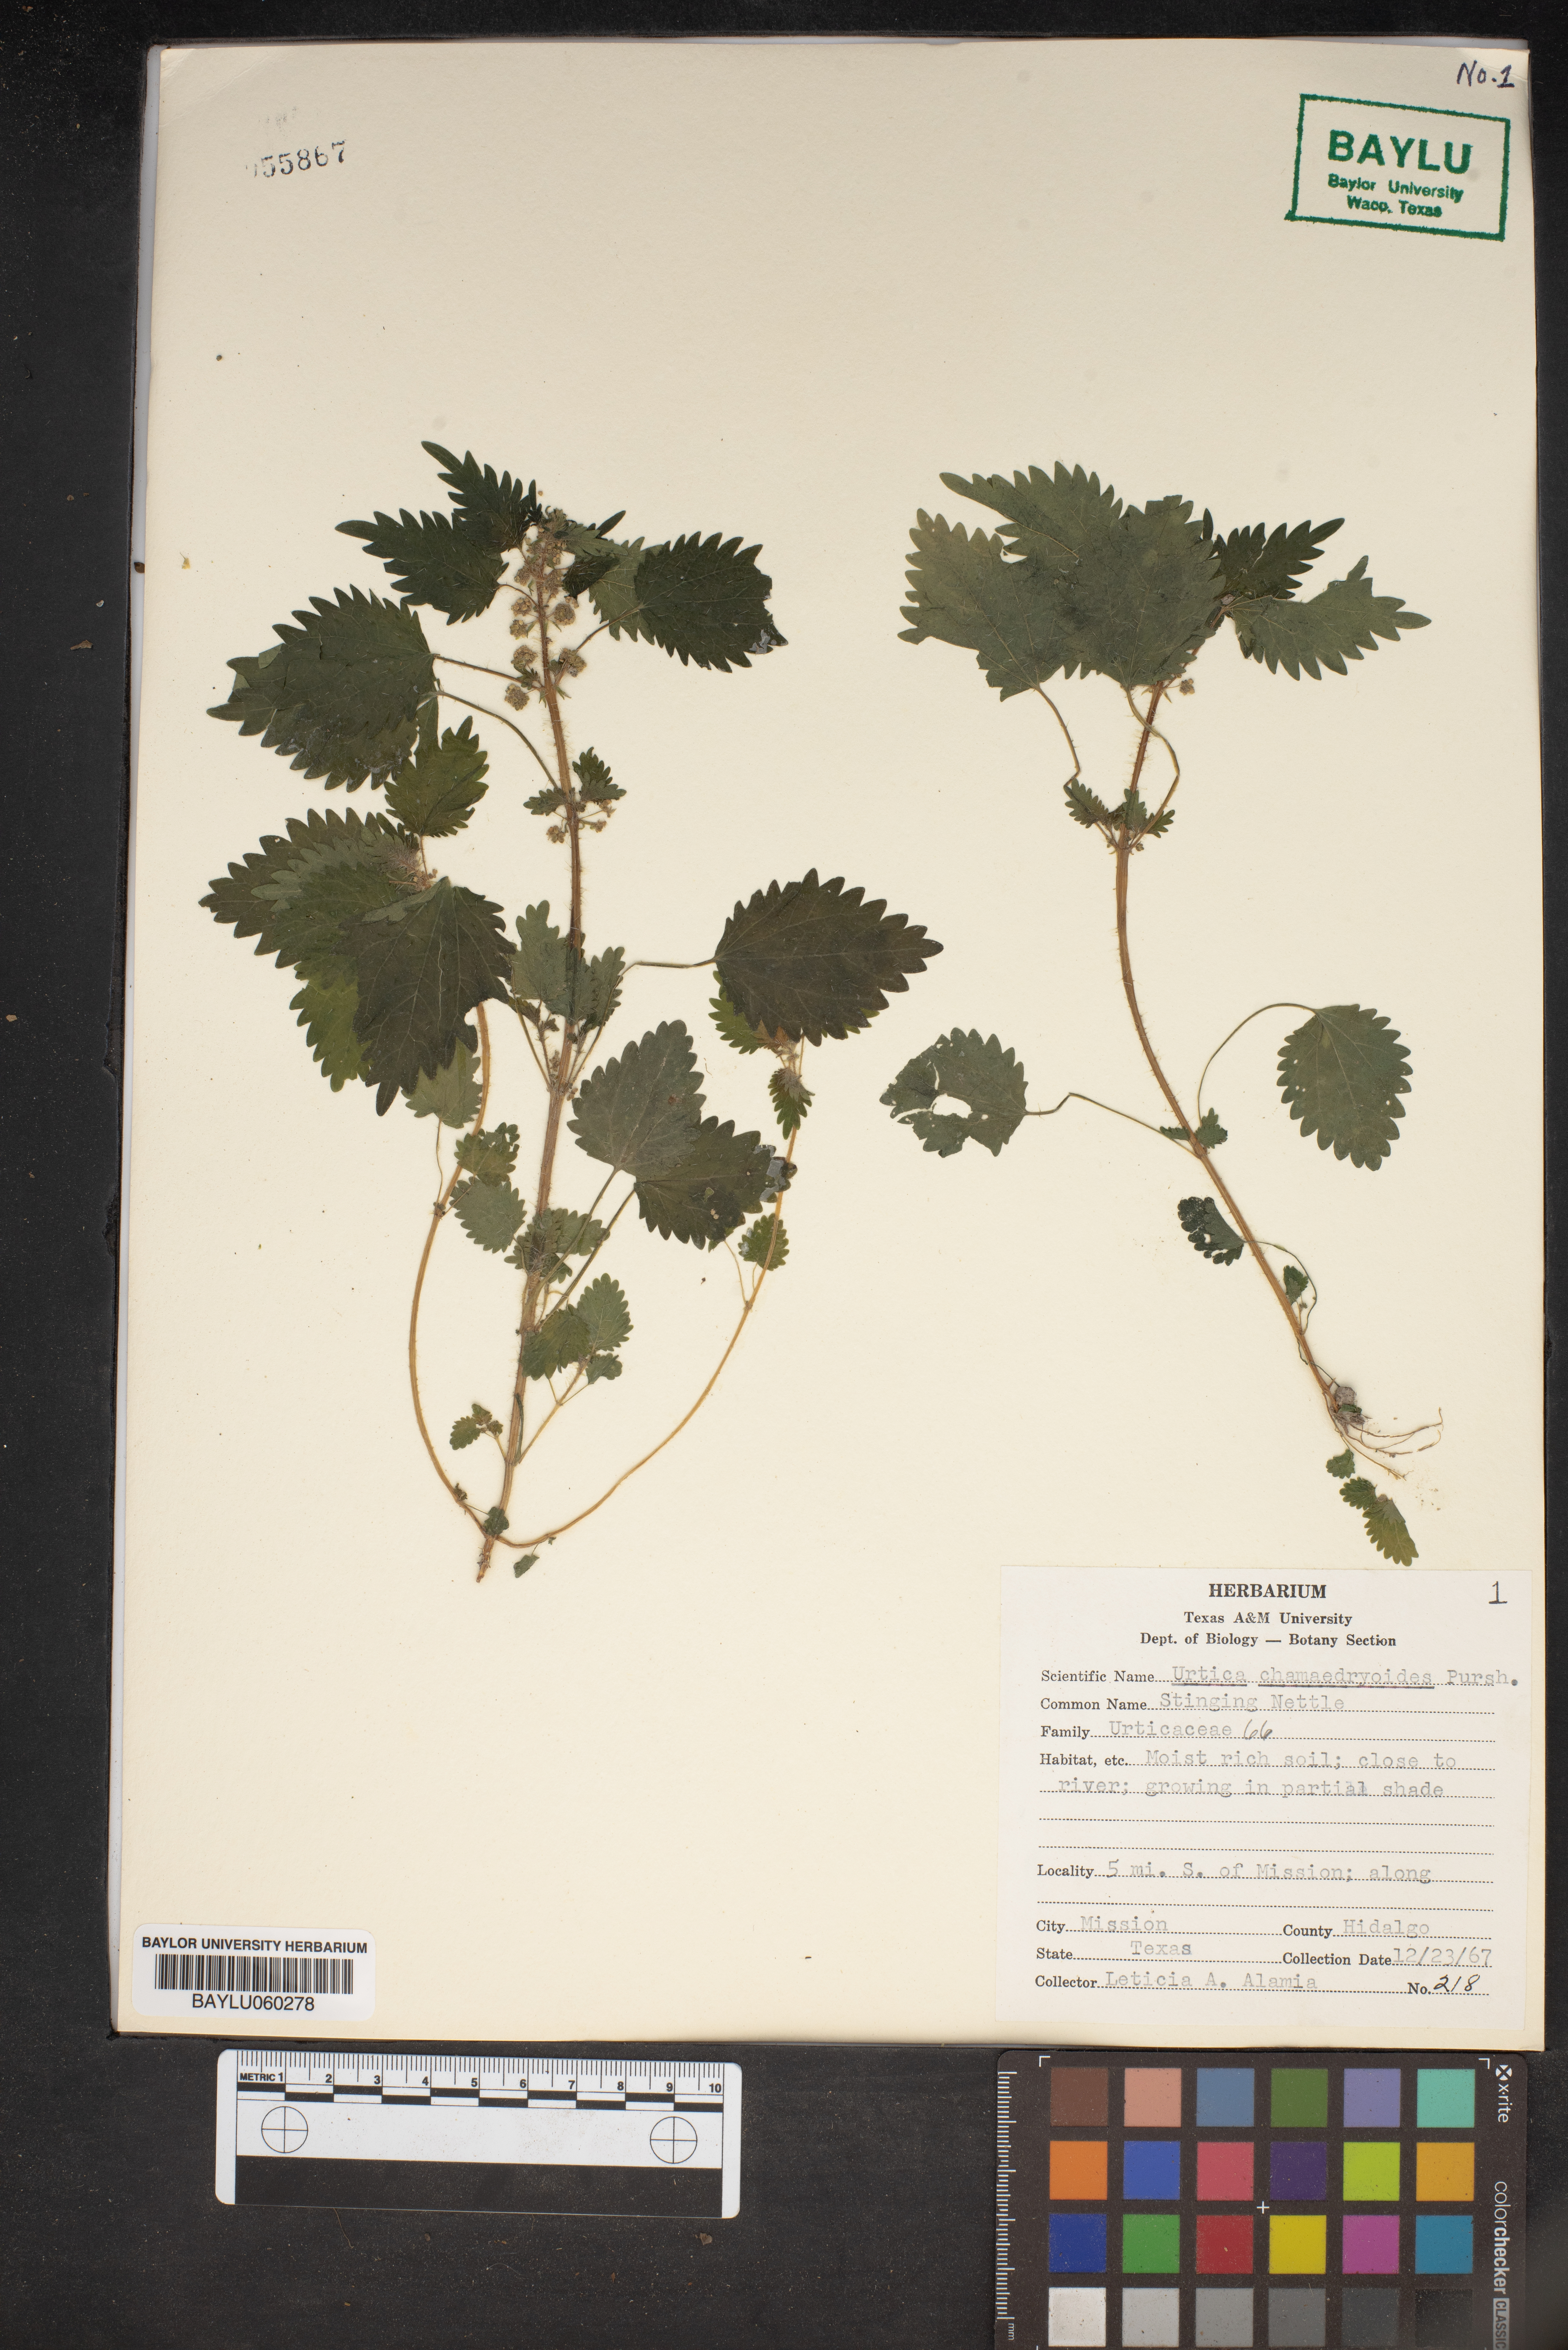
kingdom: Plantae
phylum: Tracheophyta
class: Magnoliopsida
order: Rosales
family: Urticaceae
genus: Urtica
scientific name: Urtica chamaedryoides
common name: Heart-leaf nettle
